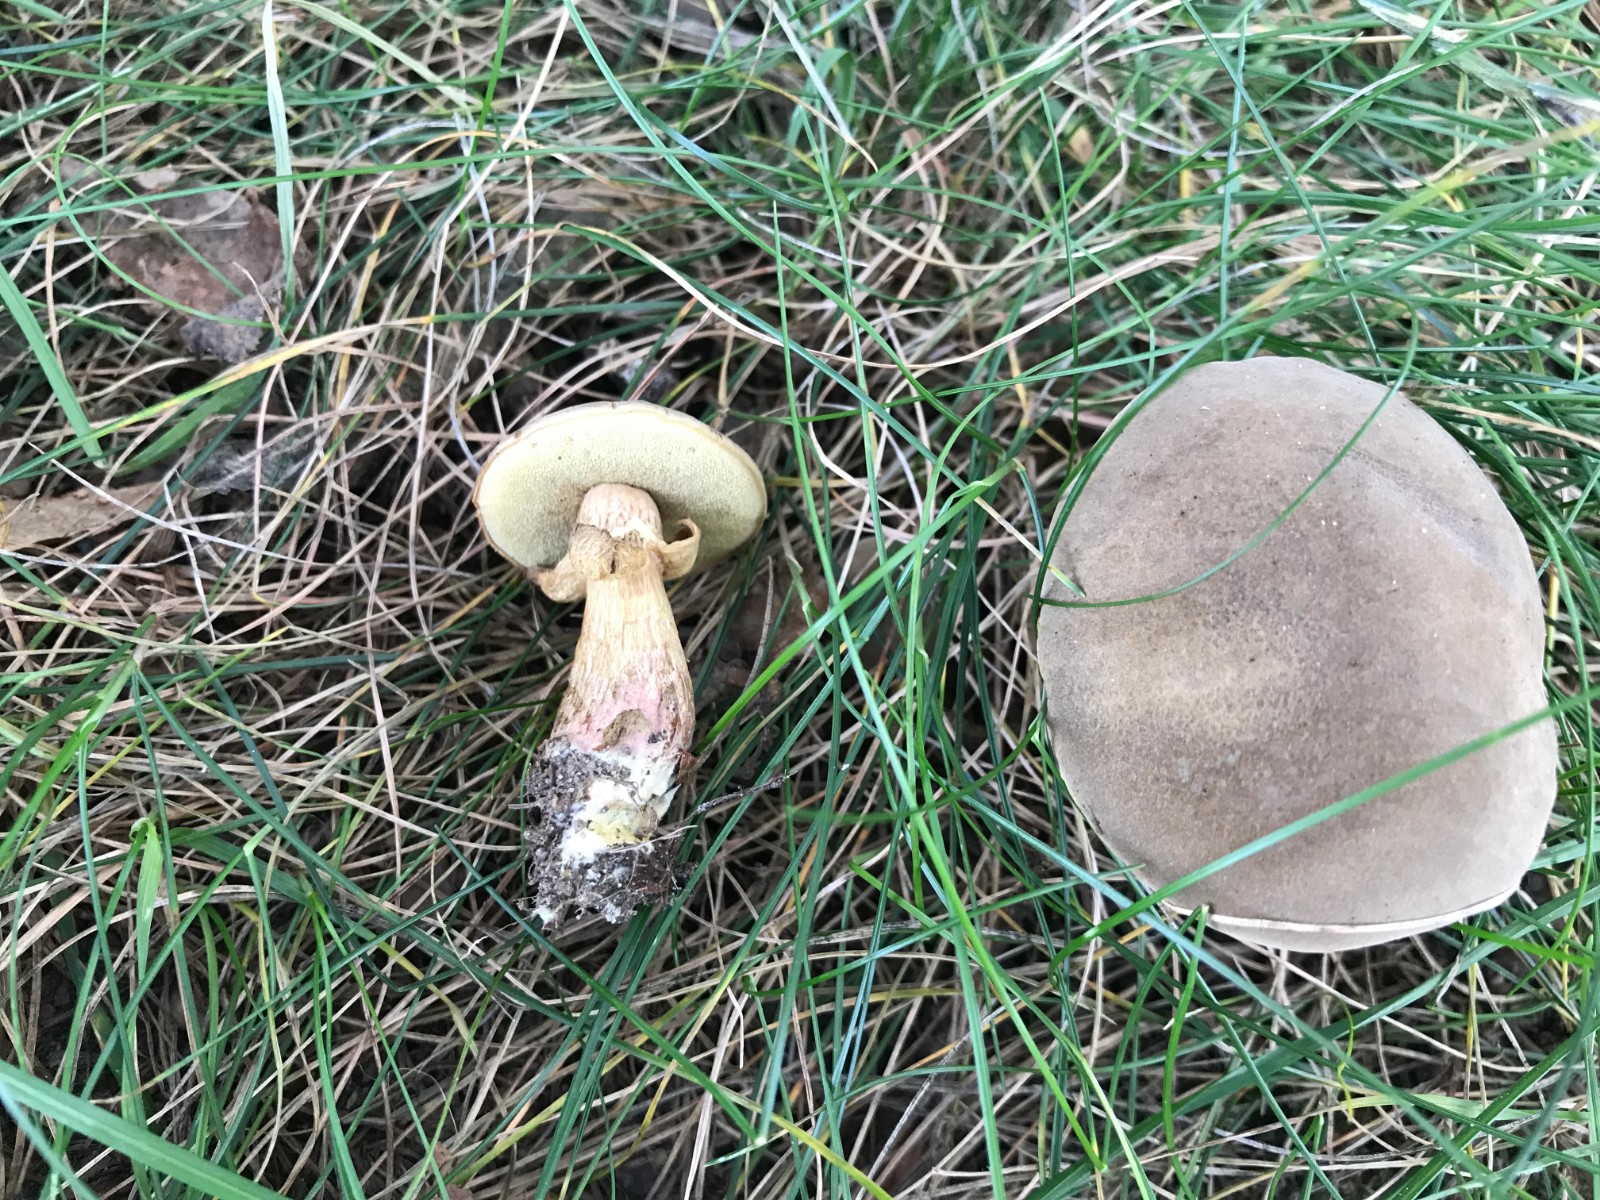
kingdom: Fungi
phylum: Basidiomycota
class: Agaricomycetes
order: Boletales
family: Boletaceae
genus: Hortiboletus
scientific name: Hortiboletus
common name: dværgrørhat
